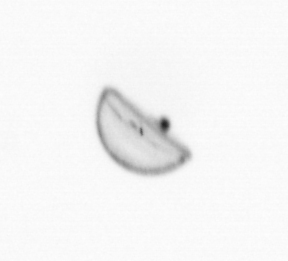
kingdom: Chromista
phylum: Ochrophyta
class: Bacillariophyceae
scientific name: Bacillariophyceae
